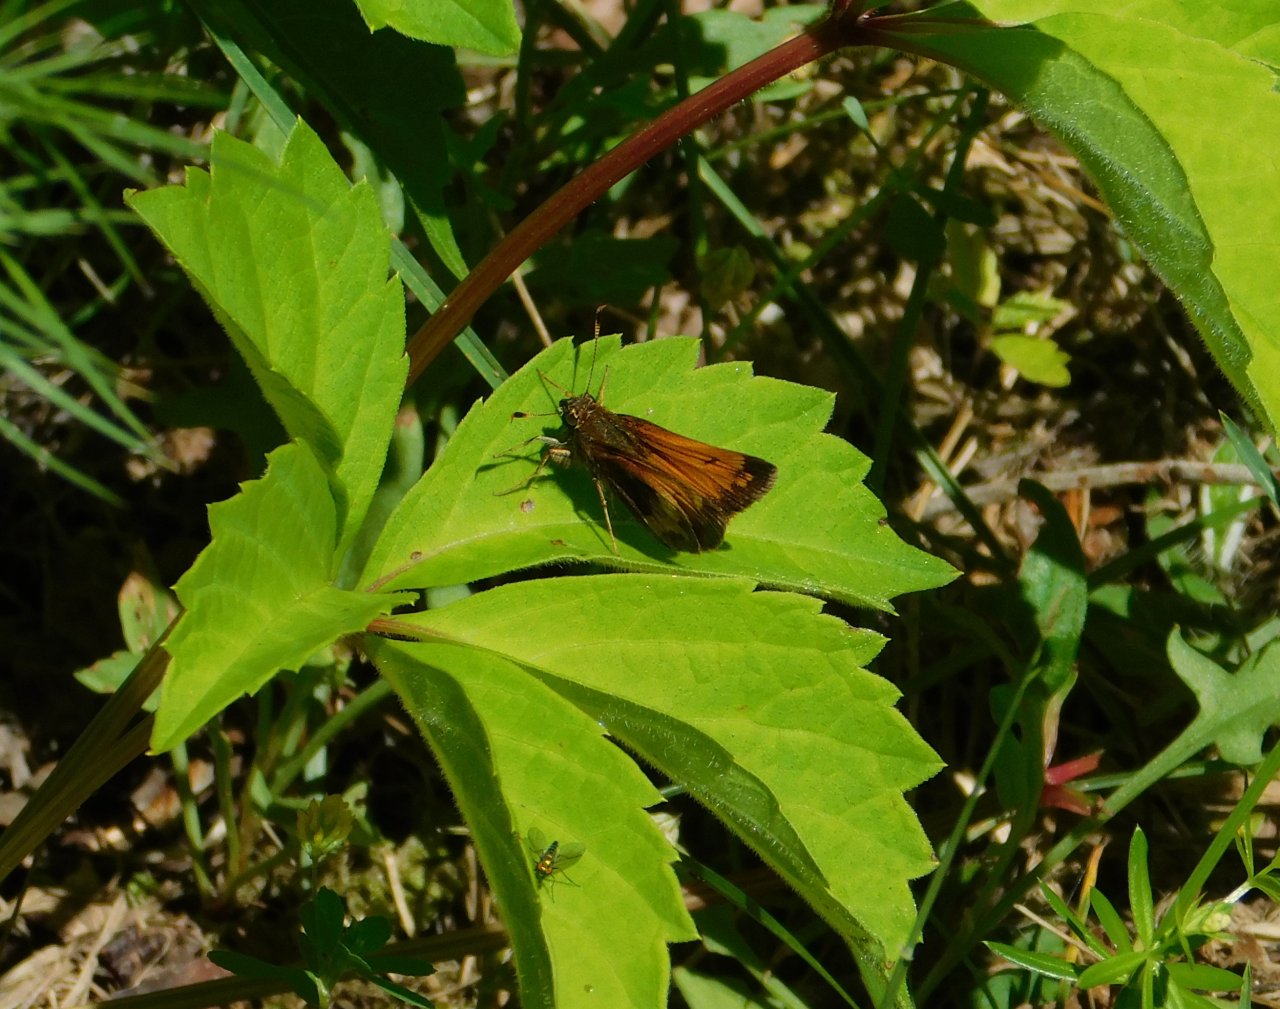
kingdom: Animalia
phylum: Arthropoda
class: Insecta
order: Lepidoptera
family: Hesperiidae
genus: Lon
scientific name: Lon hobomok
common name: Hobomok Skipper
